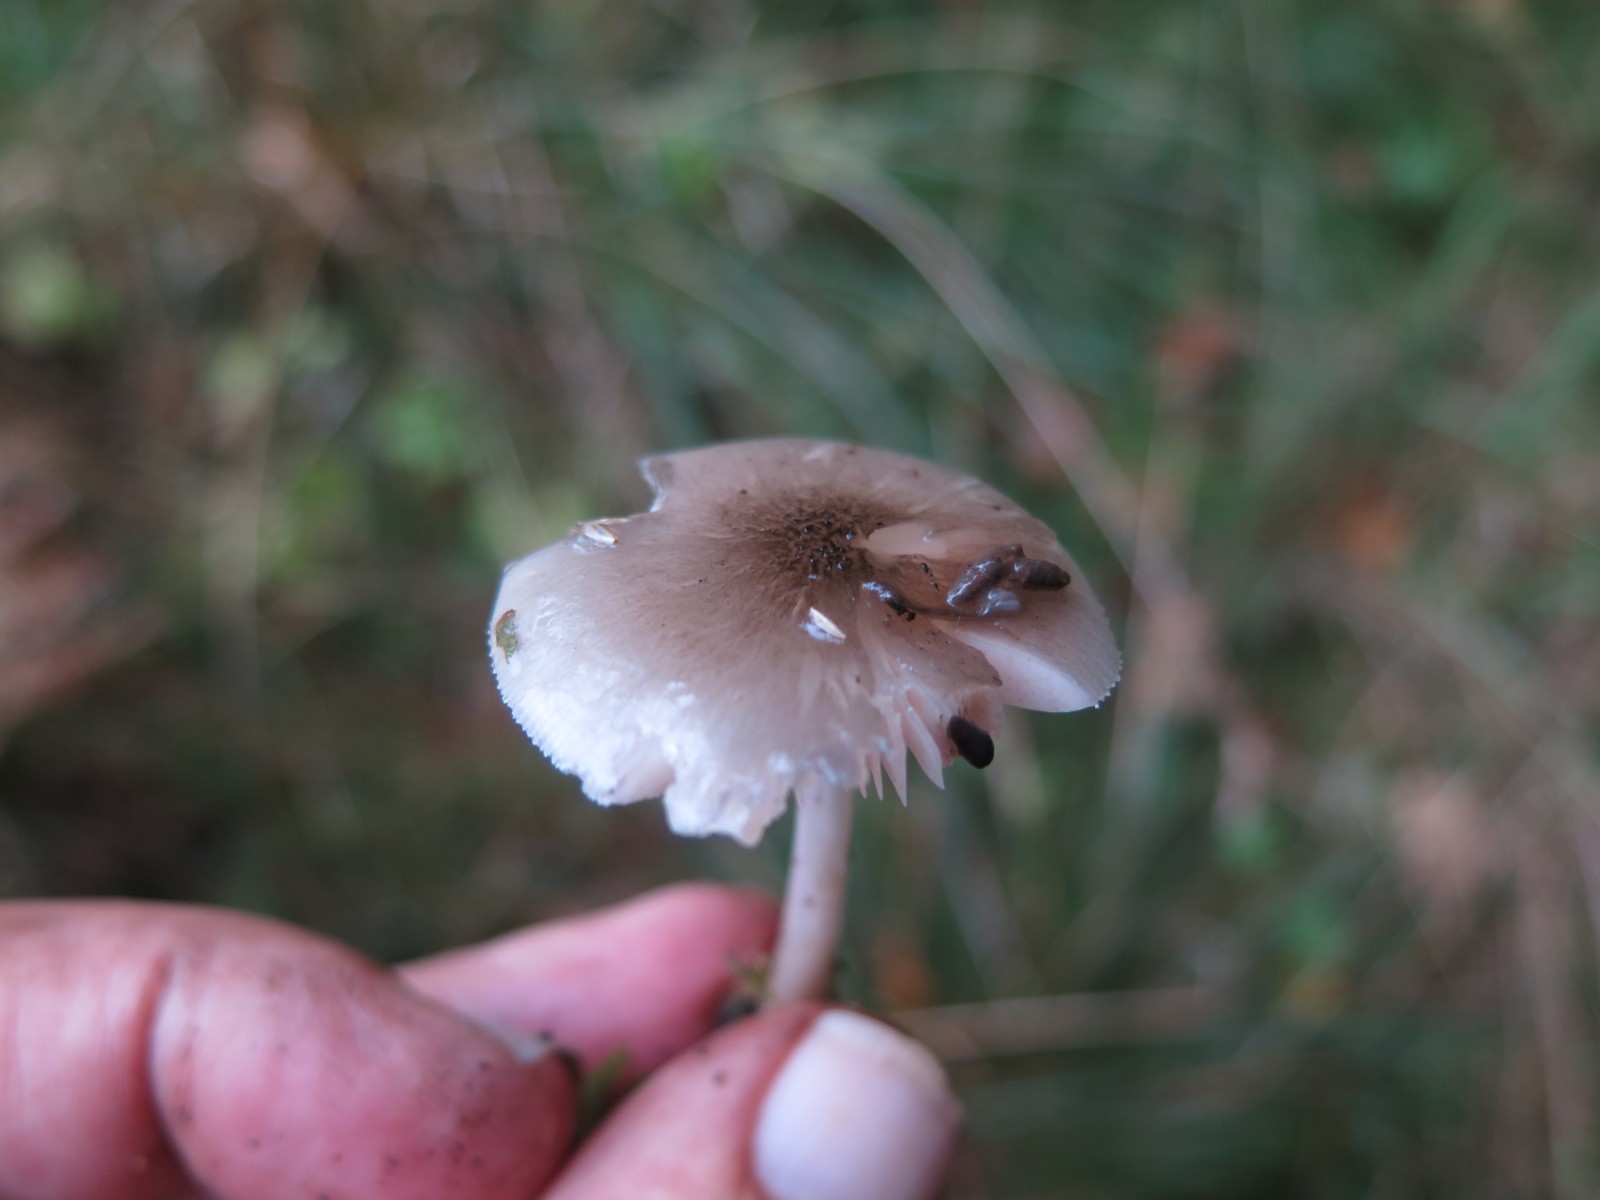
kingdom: Fungi
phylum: Basidiomycota
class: Agaricomycetes
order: Agaricales
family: Pluteaceae
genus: Pluteus
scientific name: Pluteus salicinus
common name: stiv skærmhat
